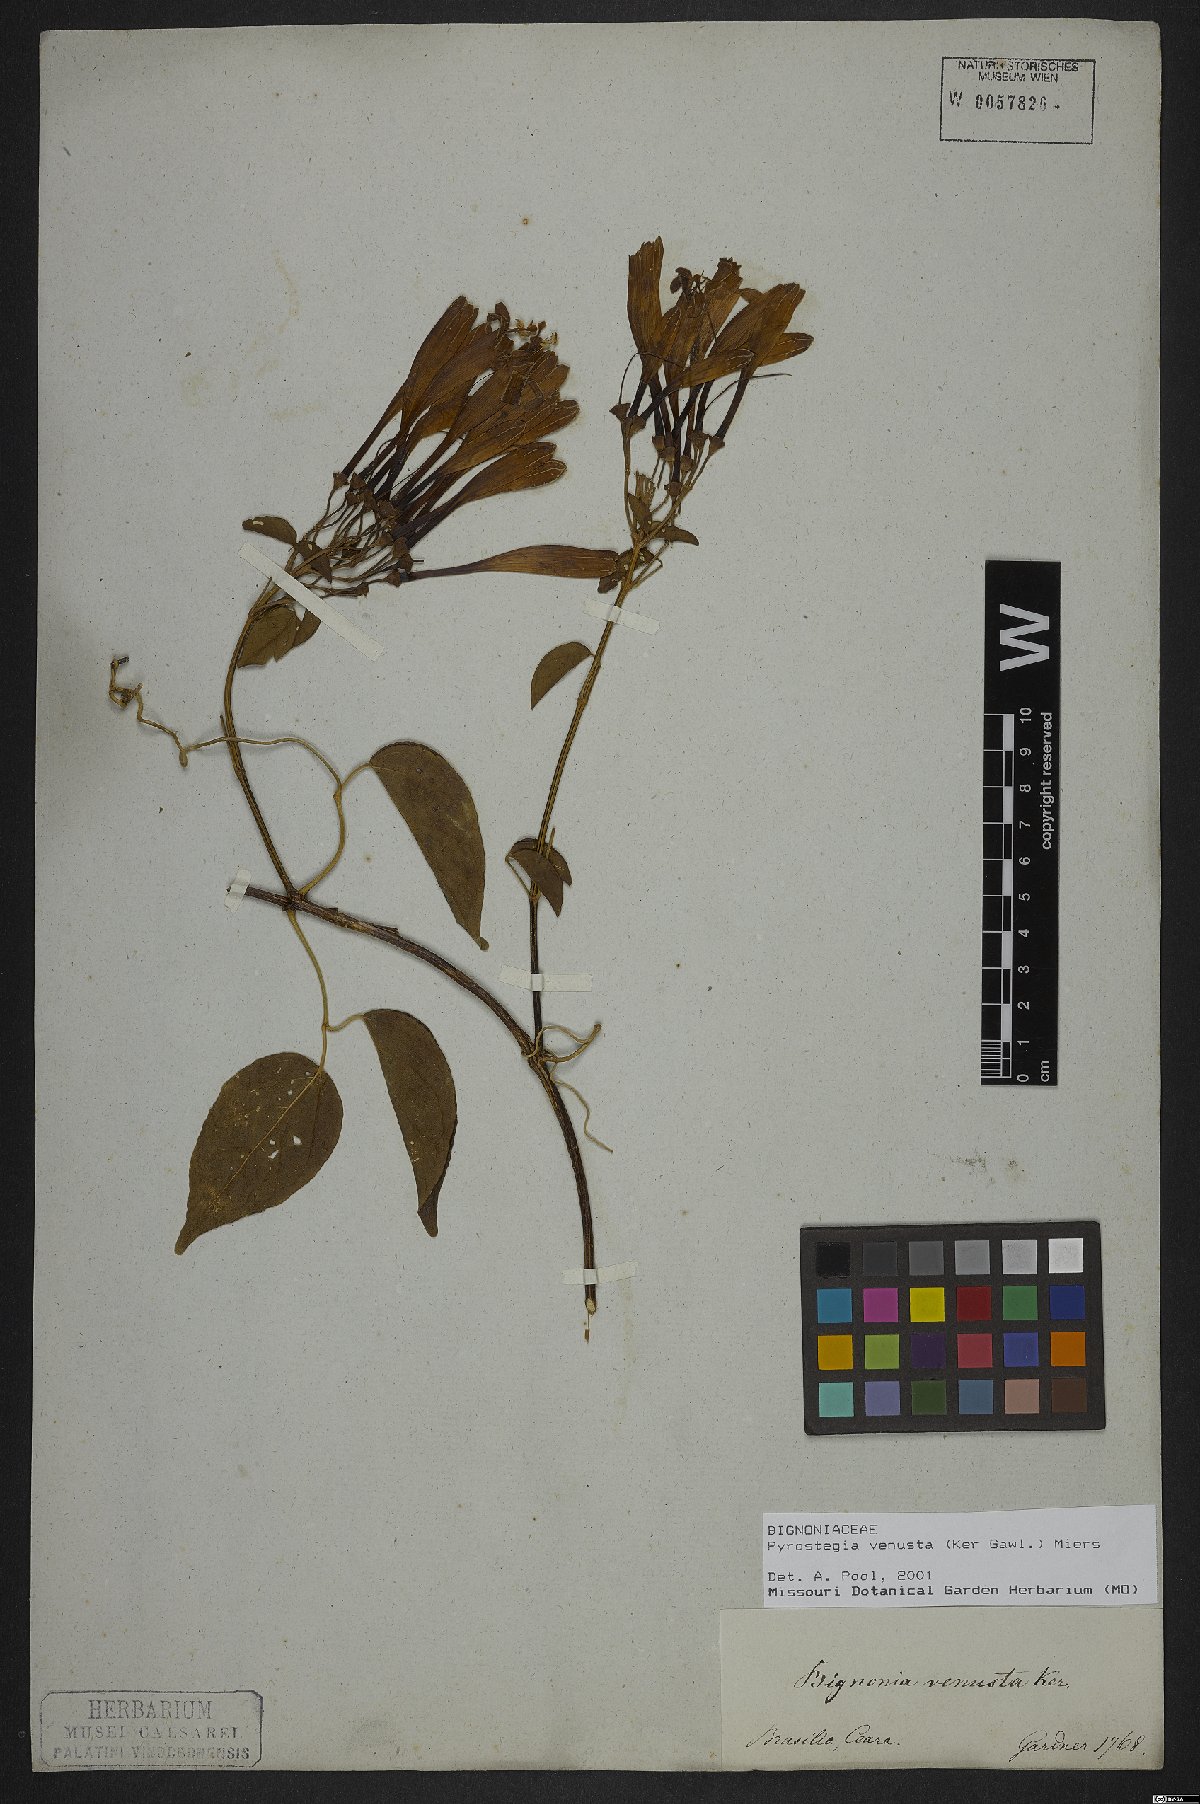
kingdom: Plantae
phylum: Tracheophyta
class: Magnoliopsida
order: Lamiales
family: Bignoniaceae
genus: Pyrostegia
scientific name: Pyrostegia venusta
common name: Flamevine
